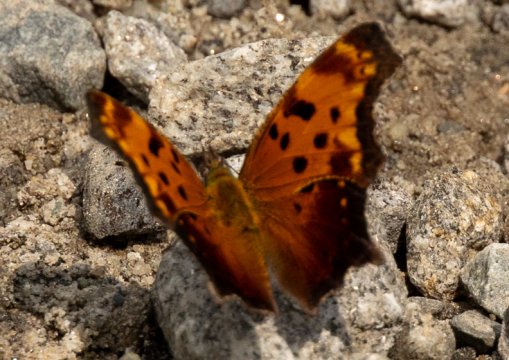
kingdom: Animalia
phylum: Arthropoda
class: Insecta
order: Lepidoptera
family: Nymphalidae
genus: Polygonia
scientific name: Polygonia progne
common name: Gray Comma
